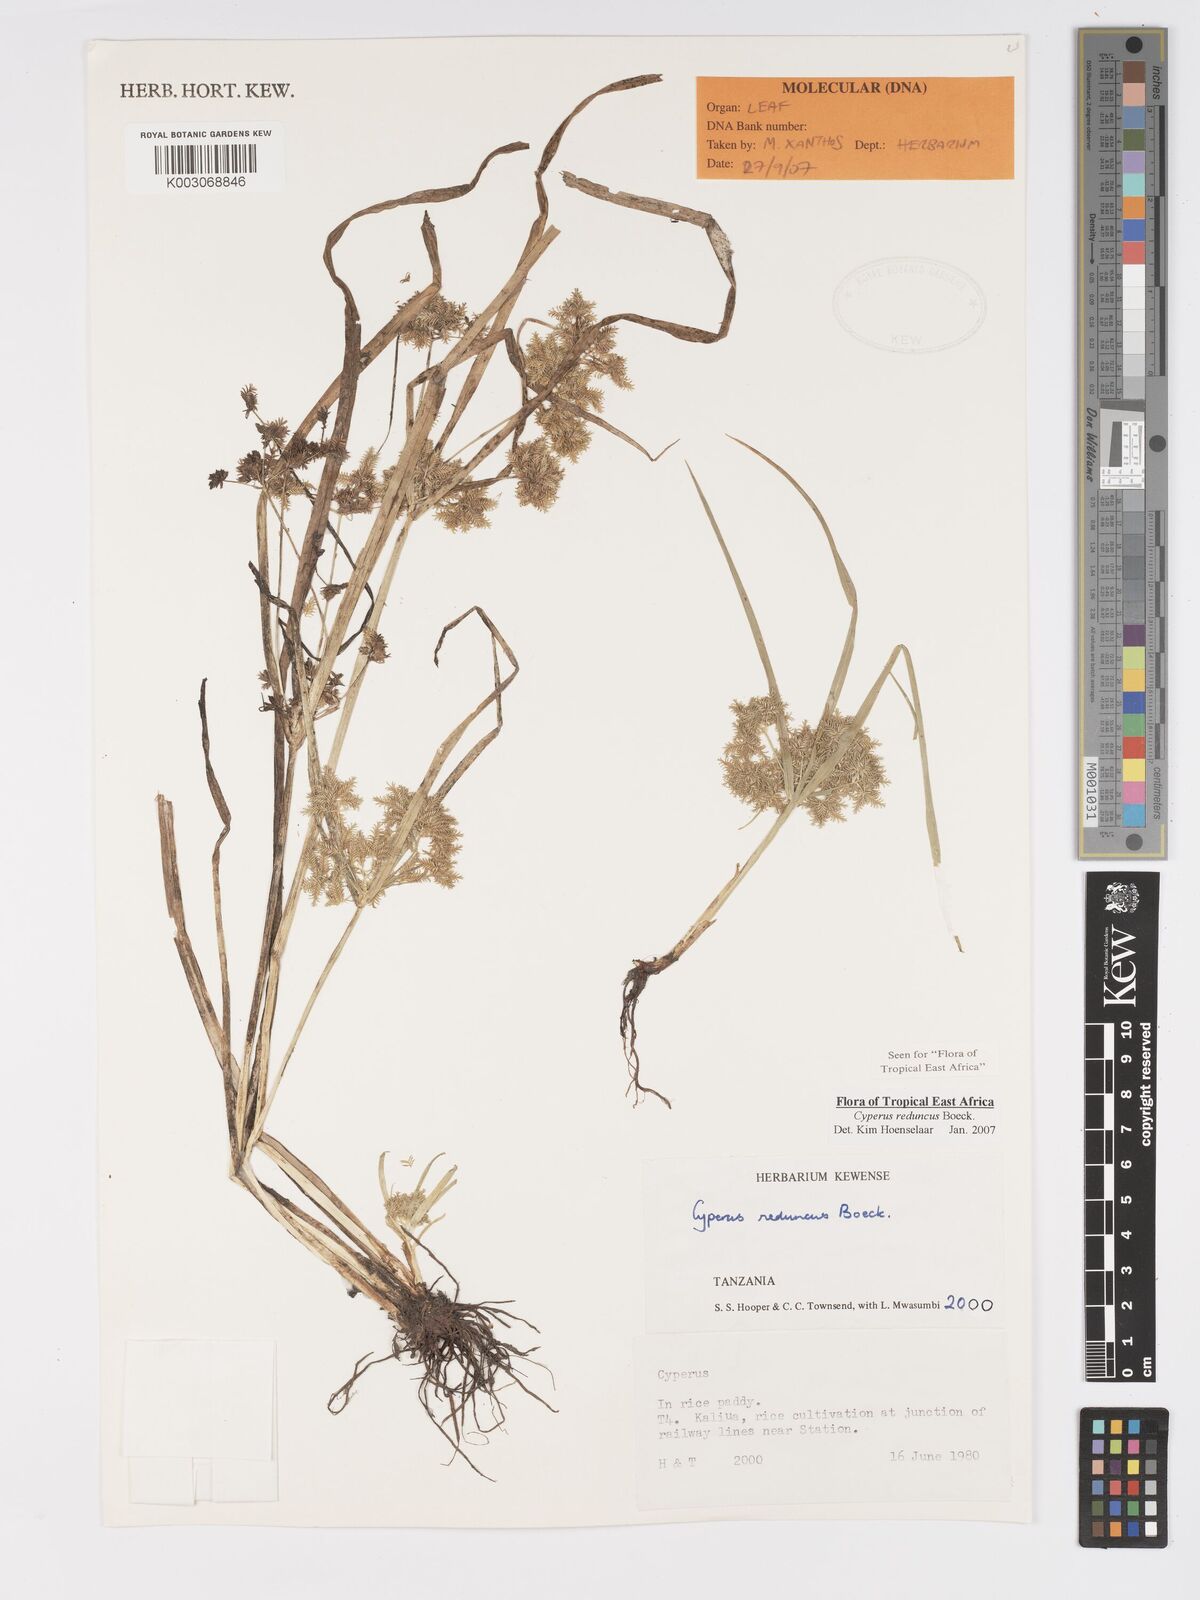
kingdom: Plantae
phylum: Tracheophyta
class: Liliopsida
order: Poales
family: Cyperaceae
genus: Cyperus
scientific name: Cyperus reduncus
